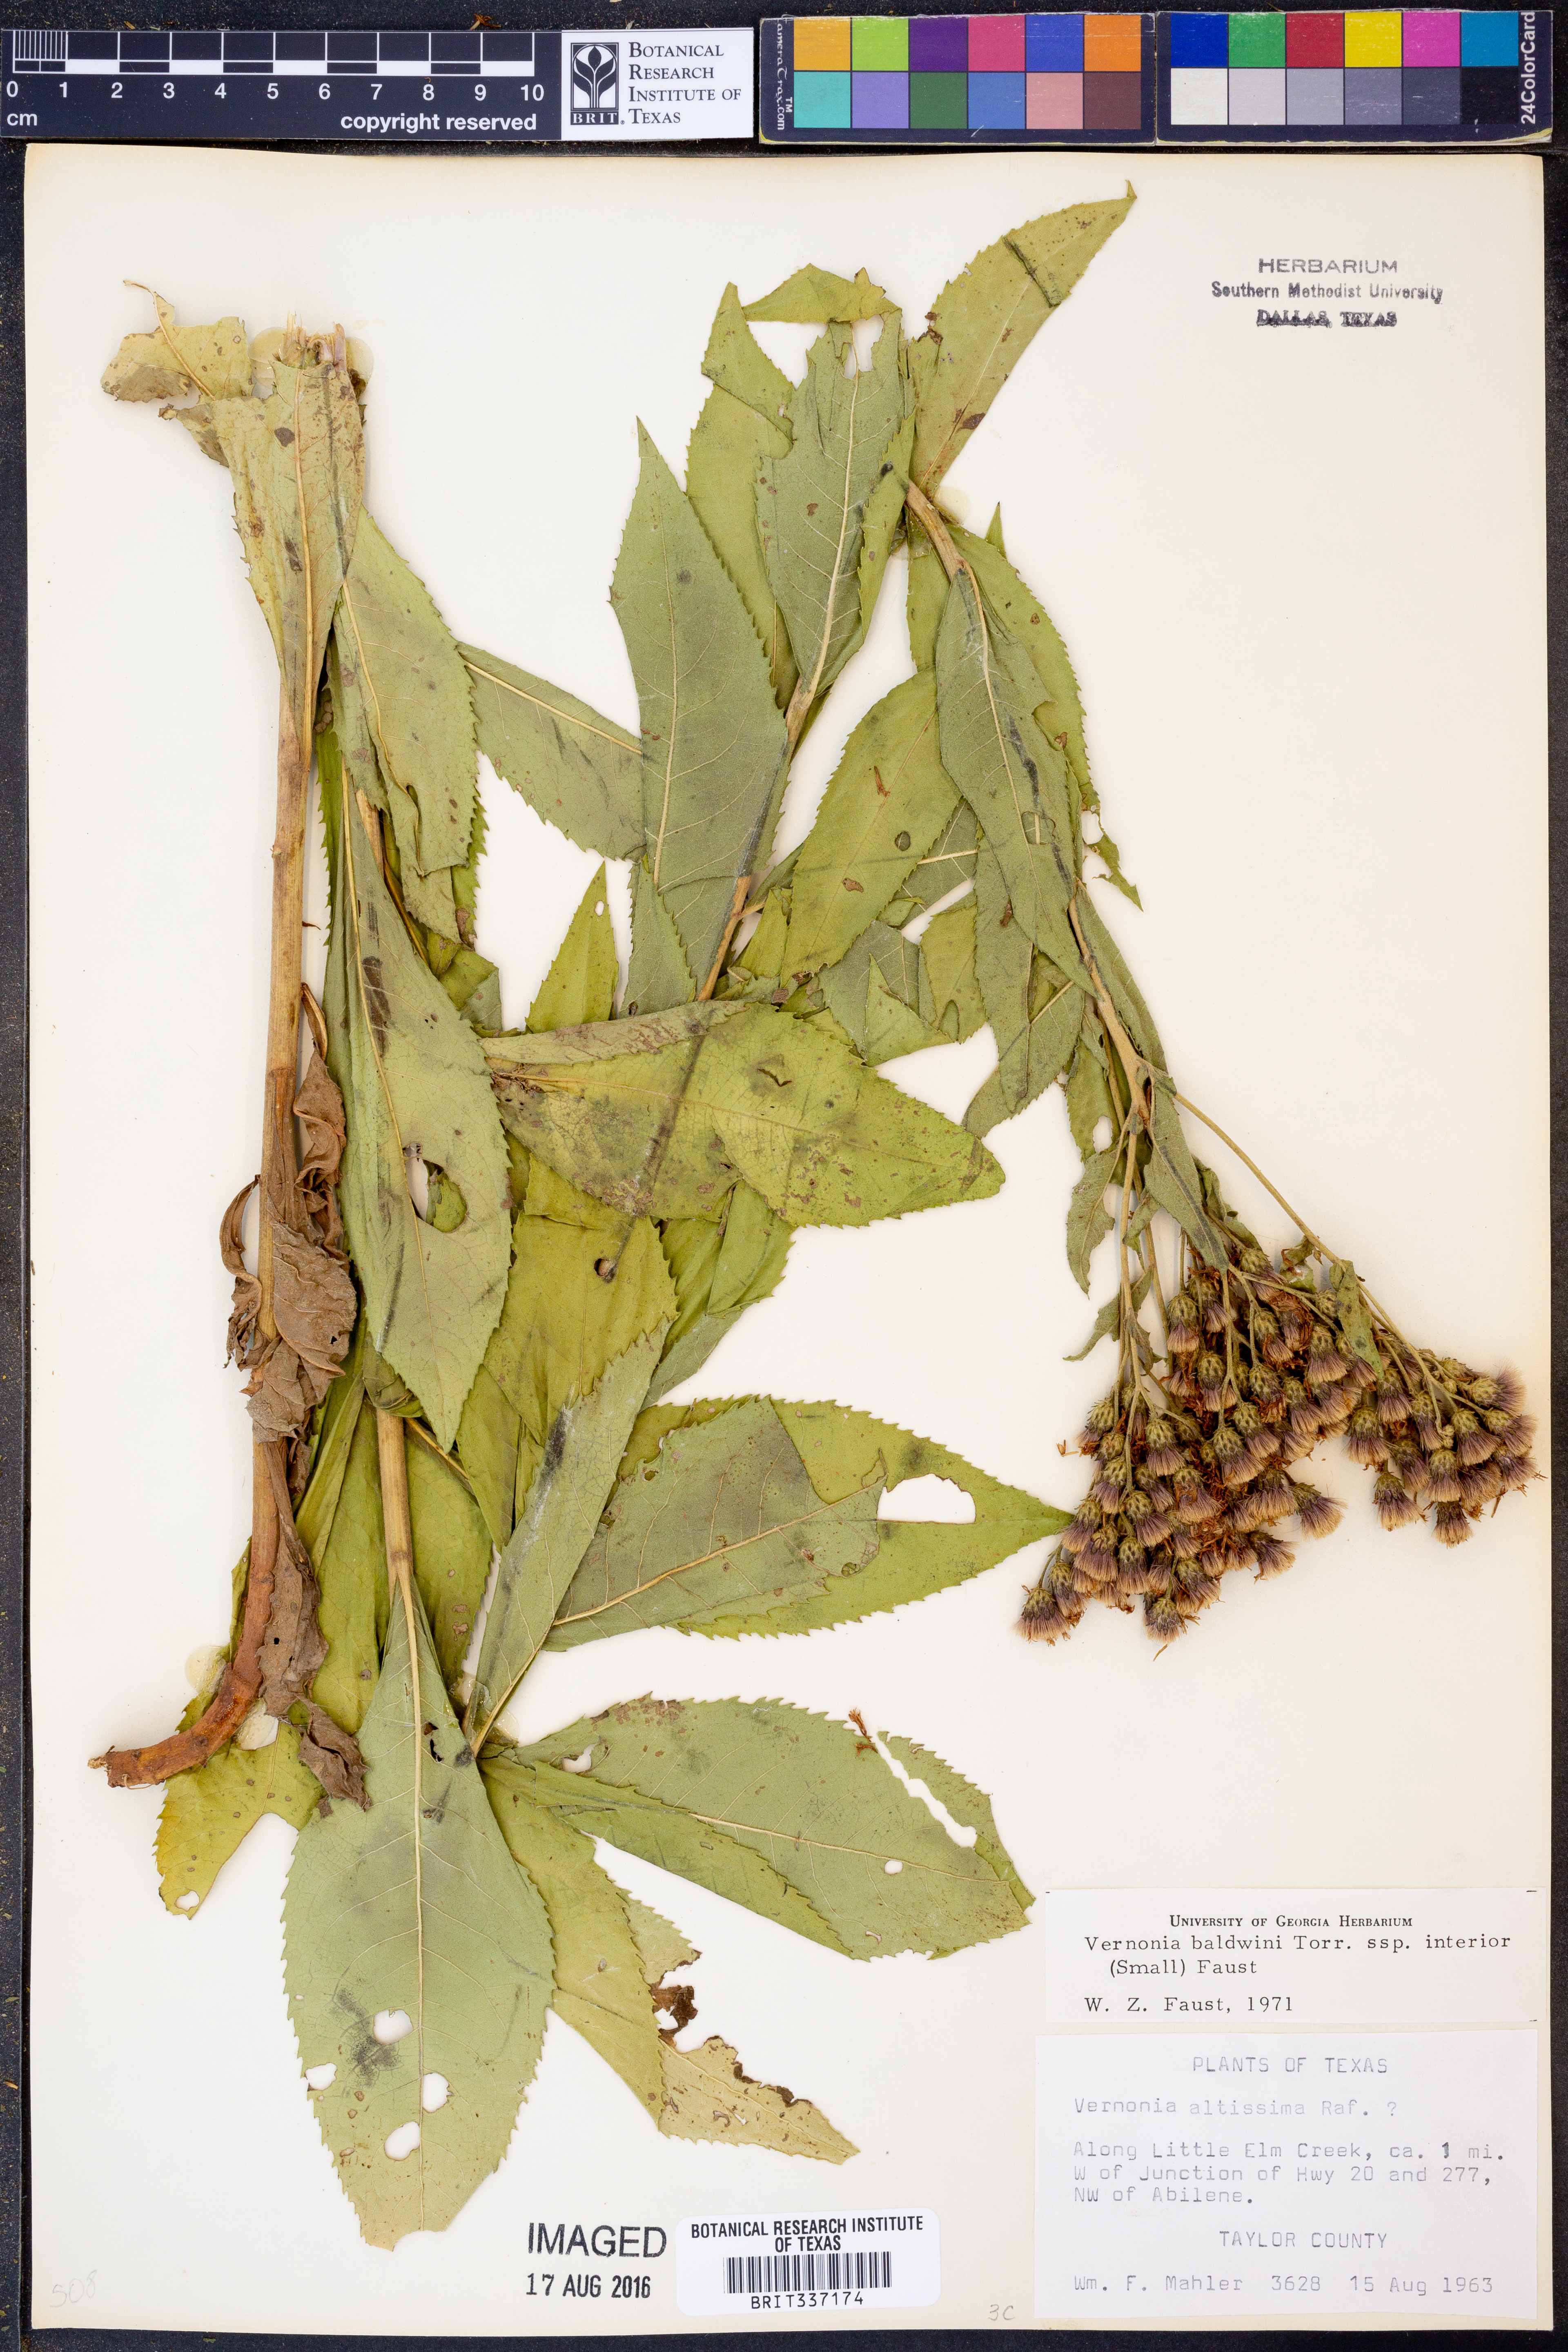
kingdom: Plantae
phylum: Tracheophyta
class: Magnoliopsida
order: Asterales
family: Asteraceae
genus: Vernonia
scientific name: Vernonia baldwinii
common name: Western ironweed
